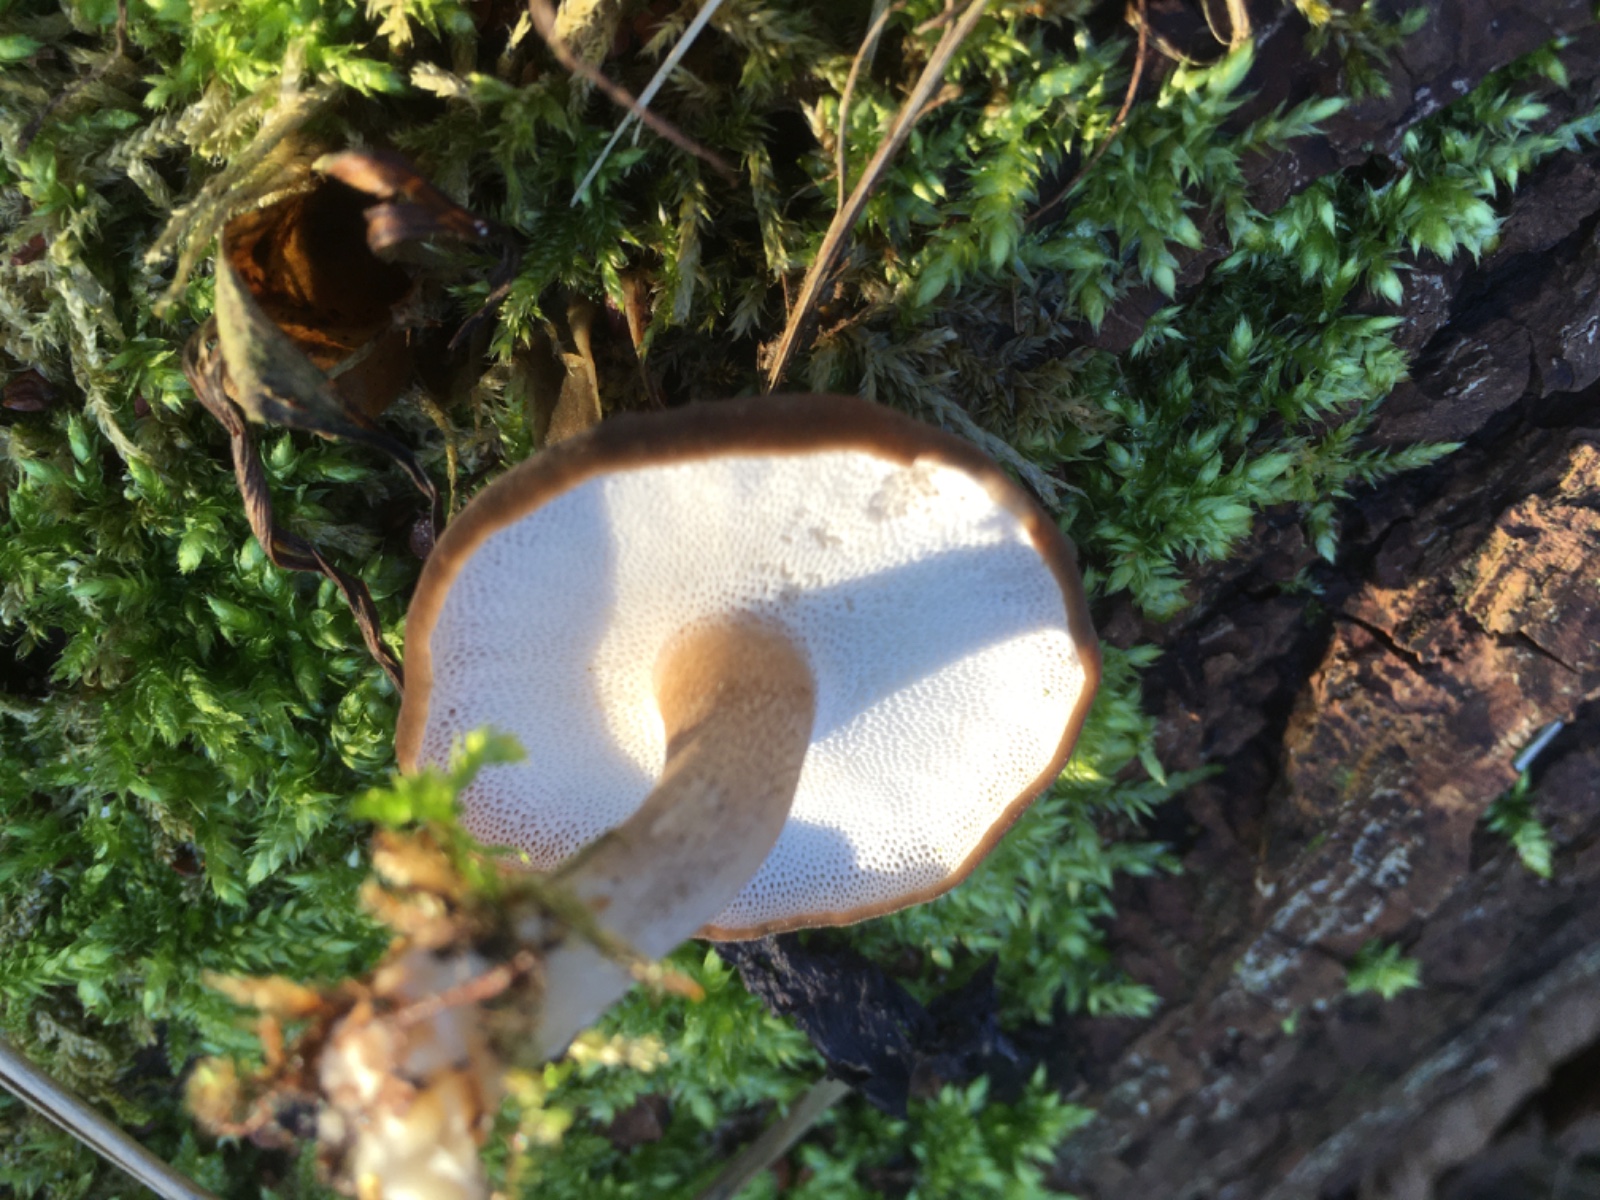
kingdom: Fungi
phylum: Basidiomycota
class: Agaricomycetes
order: Polyporales
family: Polyporaceae
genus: Lentinus
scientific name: Lentinus brumalis
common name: vinter-stilkporesvamp
